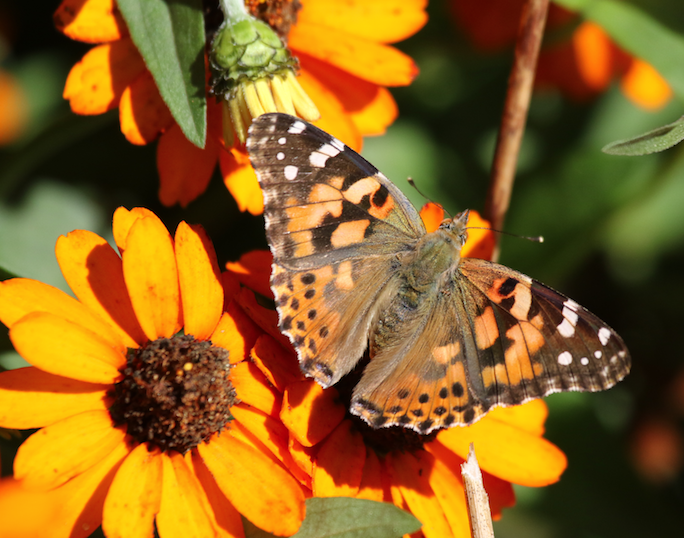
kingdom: Animalia
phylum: Arthropoda
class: Insecta
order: Lepidoptera
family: Nymphalidae
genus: Vanessa
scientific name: Vanessa cardui
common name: Painted Lady
